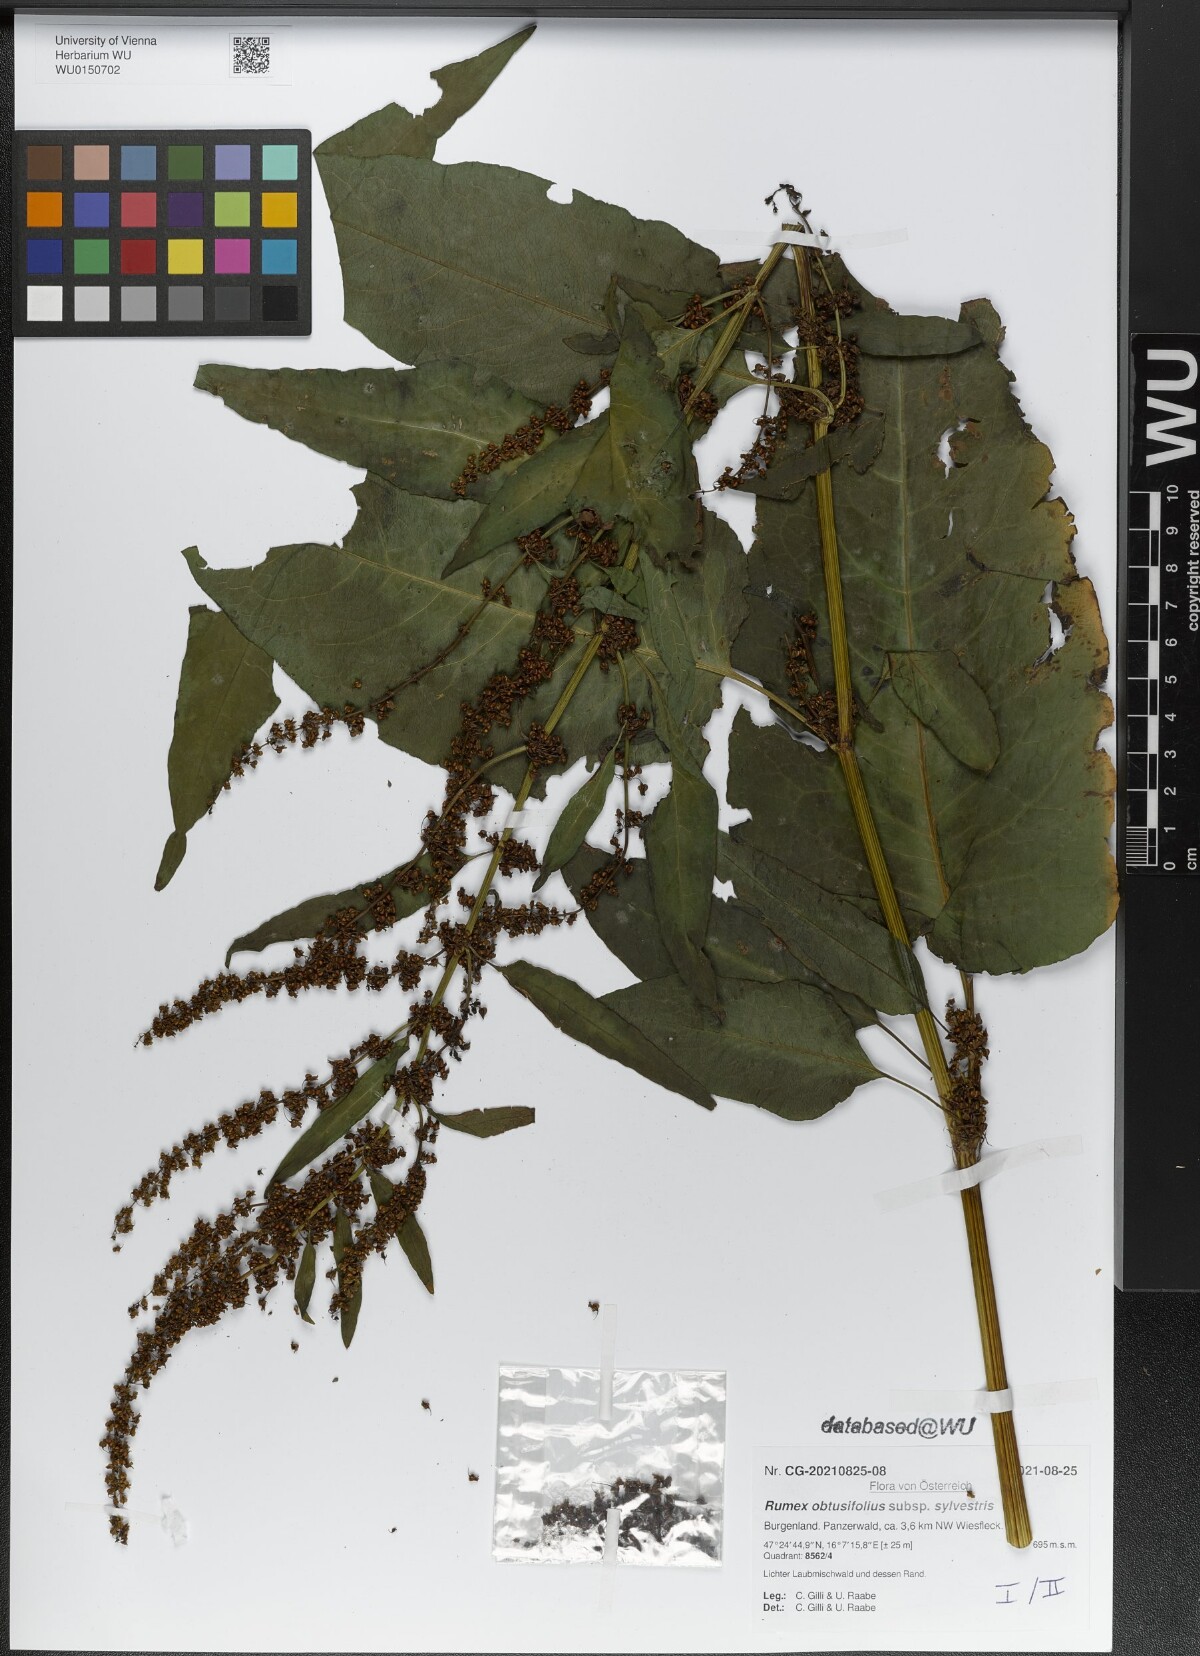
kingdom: Plantae
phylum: Tracheophyta
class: Magnoliopsida
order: Caryophyllales
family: Polygonaceae
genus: Rumex
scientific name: Rumex obtusifolius
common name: Bitter dock
